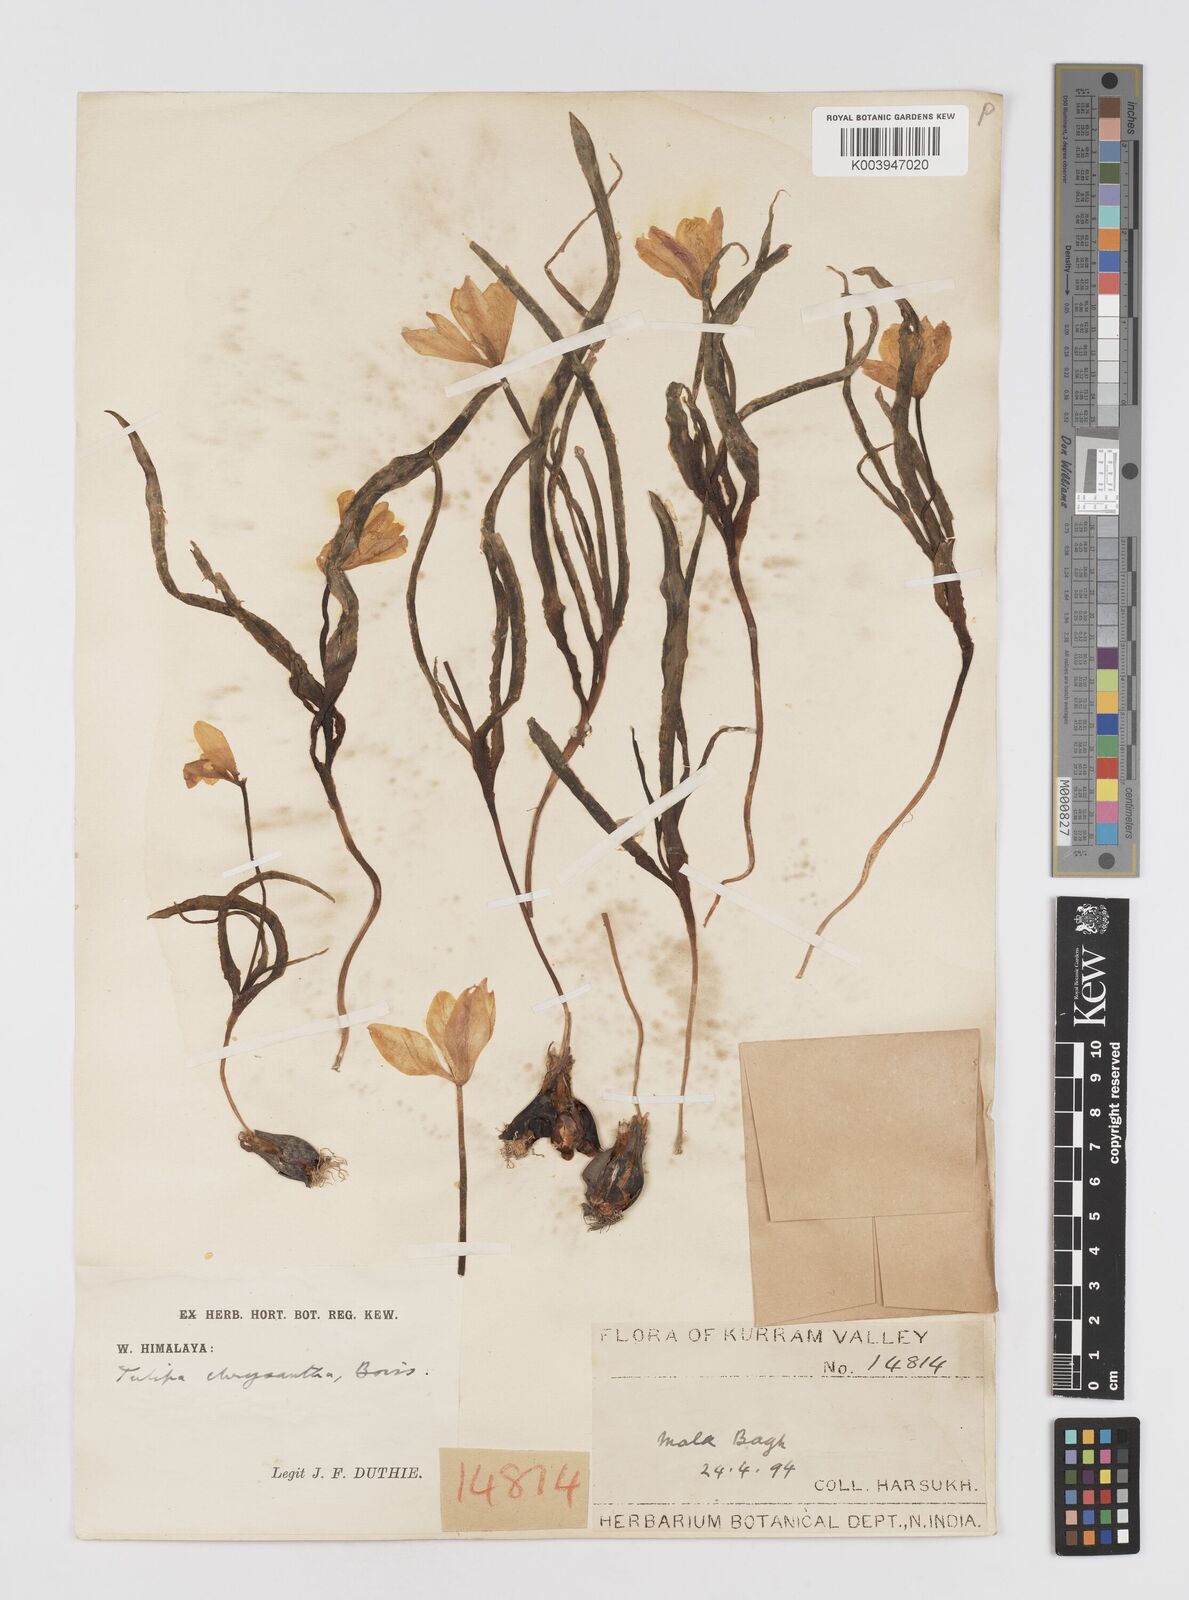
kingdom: Plantae
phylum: Tracheophyta
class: Liliopsida
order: Liliales
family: Liliaceae
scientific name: Liliaceae
